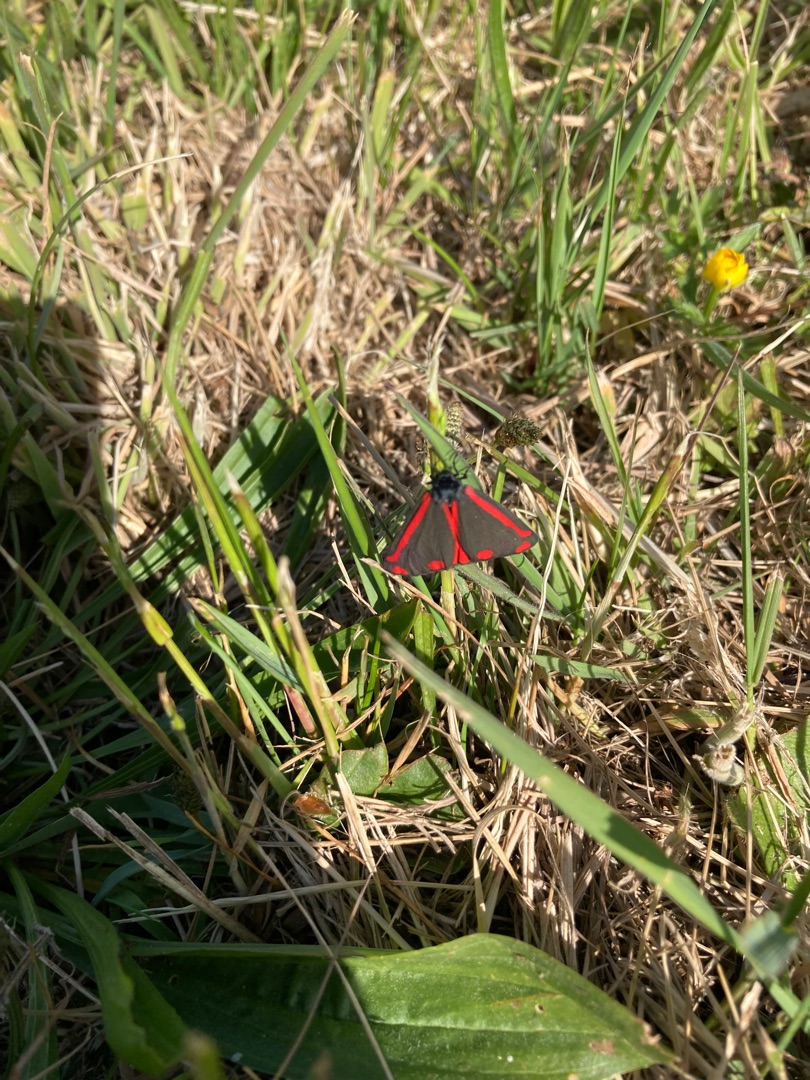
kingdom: Animalia
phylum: Arthropoda
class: Insecta
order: Lepidoptera
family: Erebidae
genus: Tyria
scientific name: Tyria jacobaeae
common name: Blodplet
